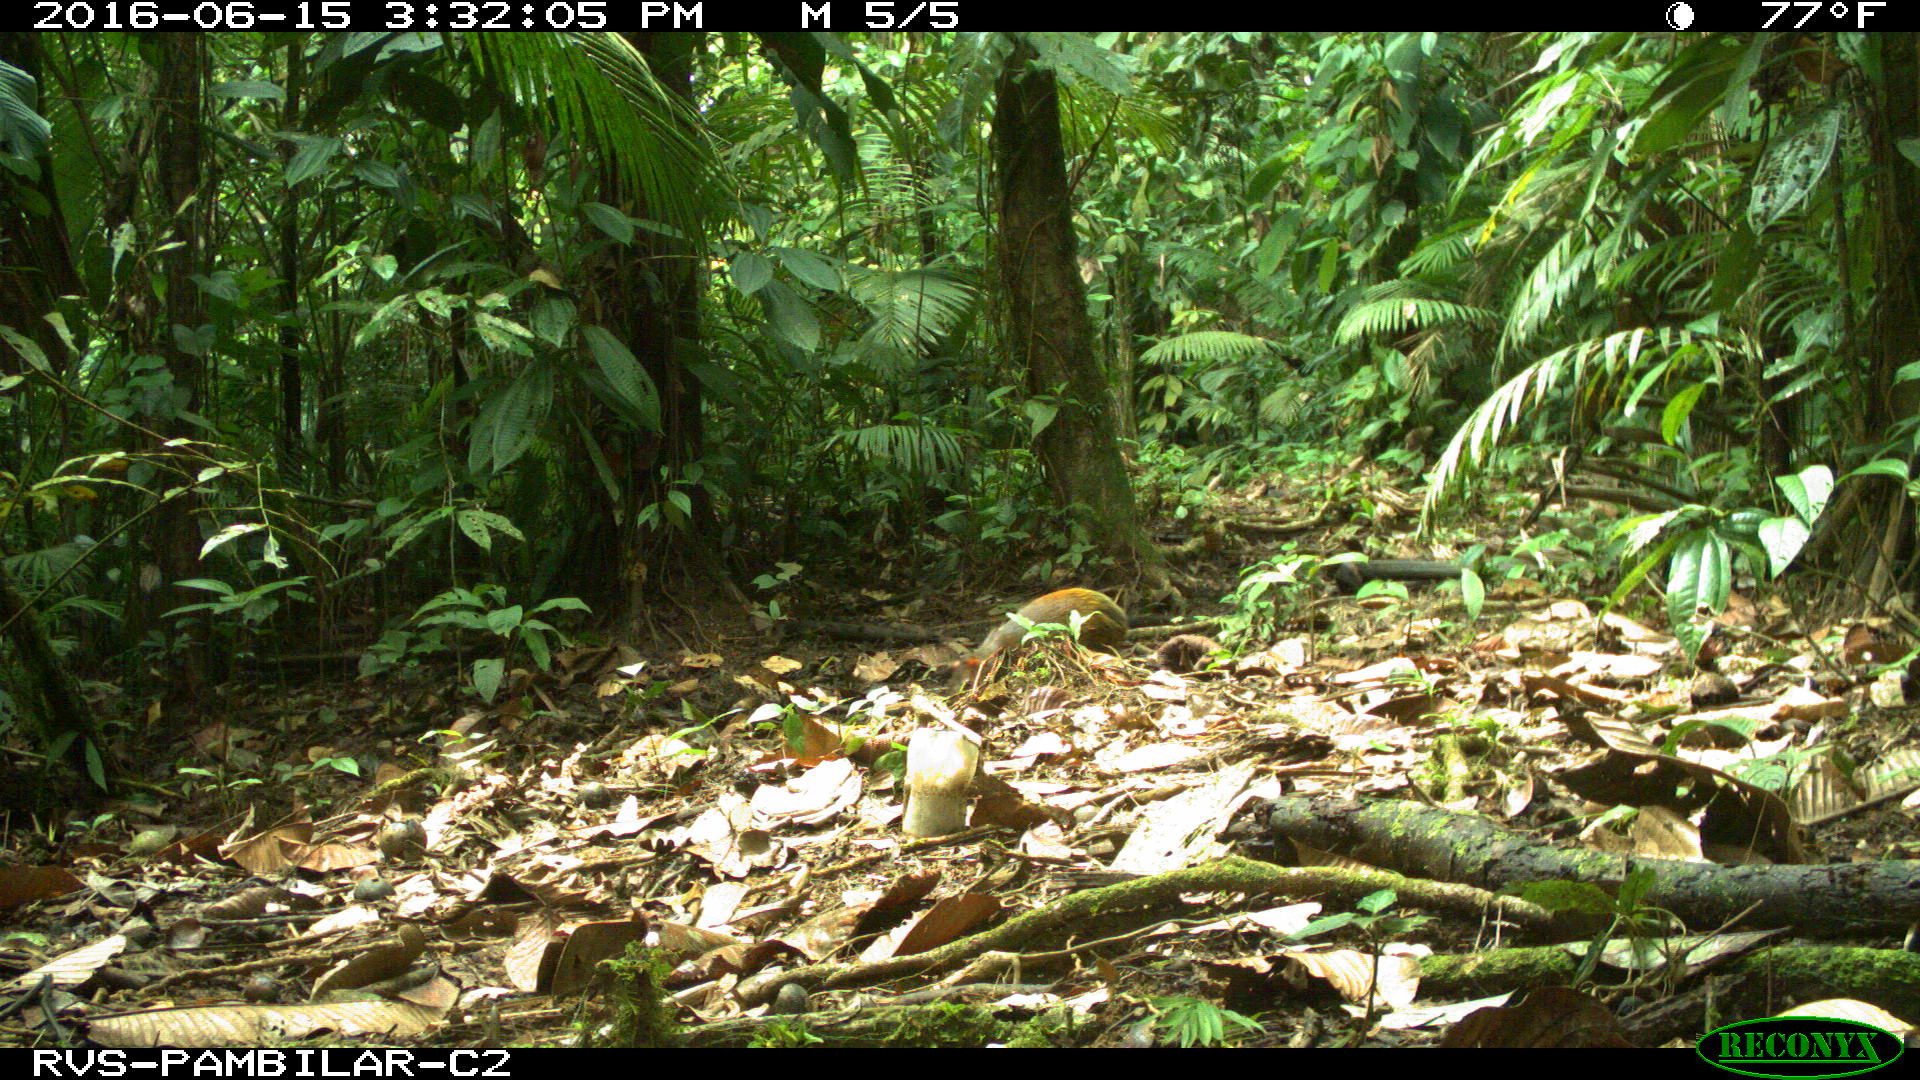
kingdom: Animalia
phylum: Chordata
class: Mammalia
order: Rodentia
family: Dasyproctidae
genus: Dasyprocta
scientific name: Dasyprocta punctata
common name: Central american agouti
